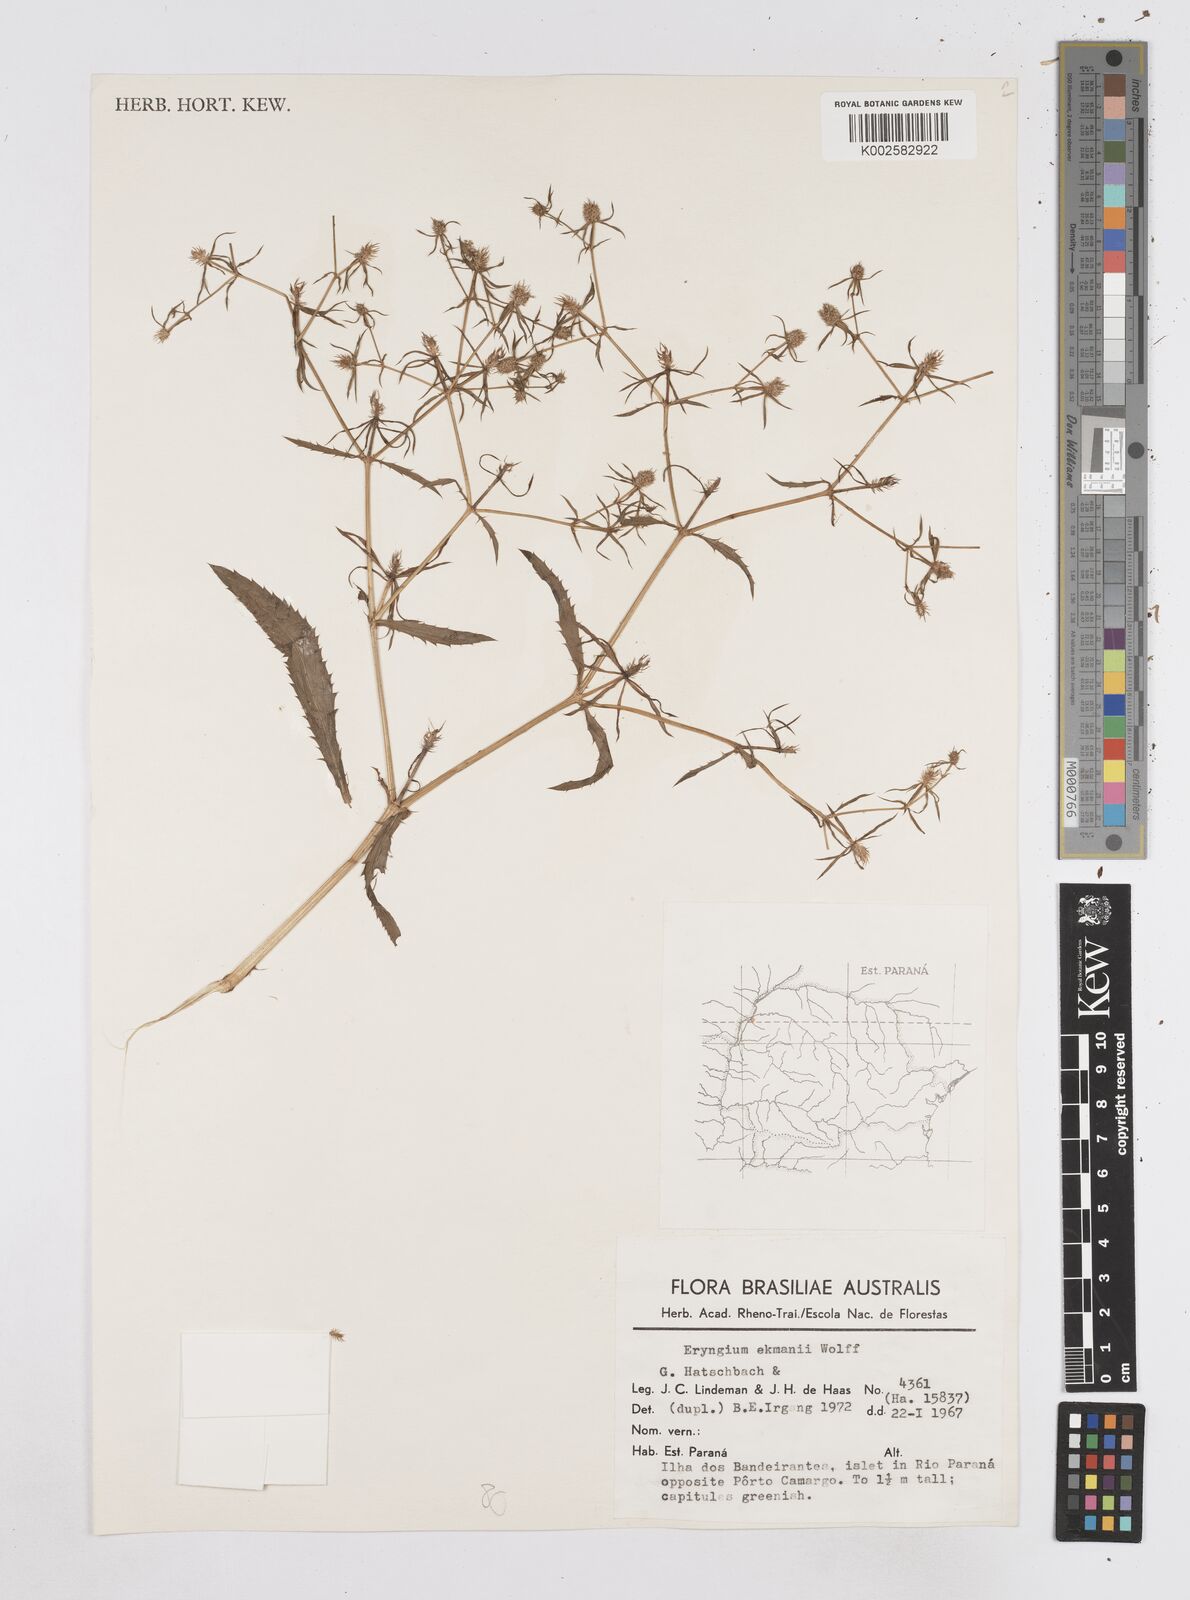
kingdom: Plantae
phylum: Tracheophyta
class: Magnoliopsida
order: Apiales
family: Apiaceae
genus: Eryngium
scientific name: Eryngium ekmanii
